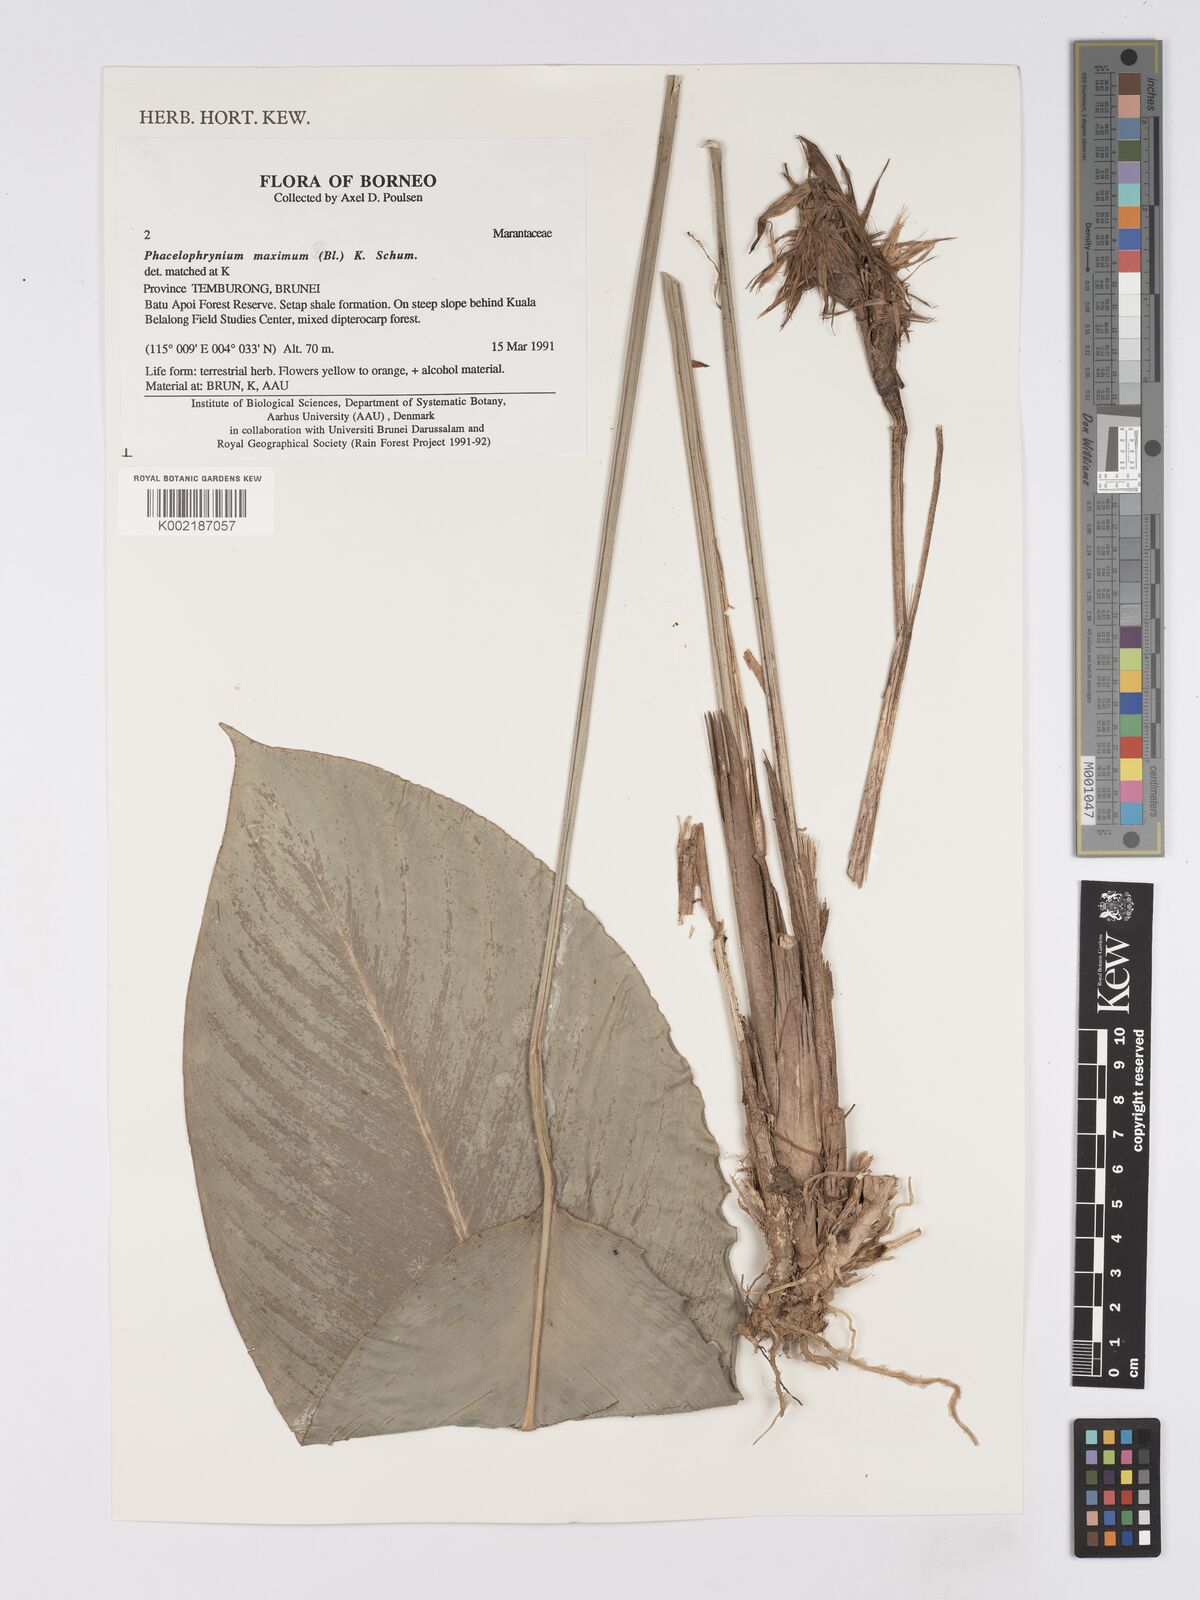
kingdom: Plantae
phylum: Tracheophyta
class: Liliopsida
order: Zingiberales
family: Marantaceae
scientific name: Marantaceae
